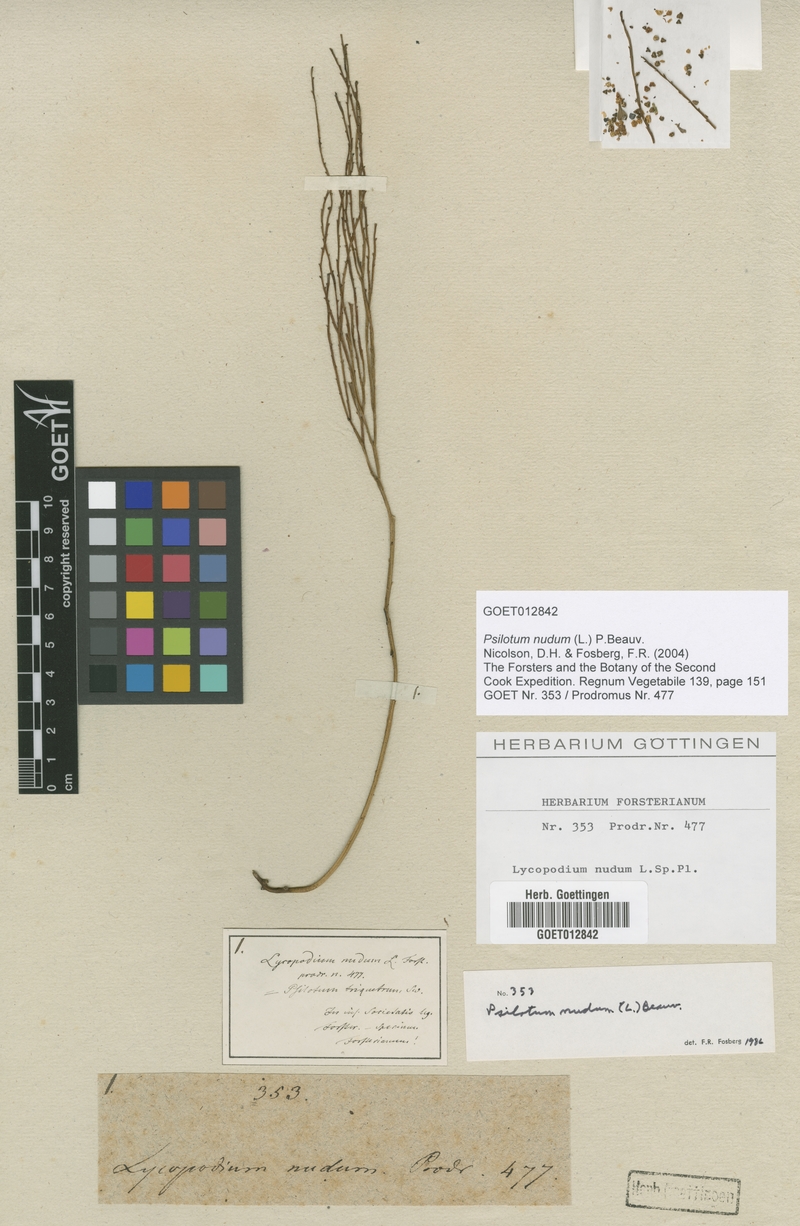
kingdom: Plantae
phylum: Tracheophyta
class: Polypodiopsida
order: Psilotales
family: Psilotaceae
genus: Psilotum
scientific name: Psilotum nudum
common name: Skeleton fork fern
